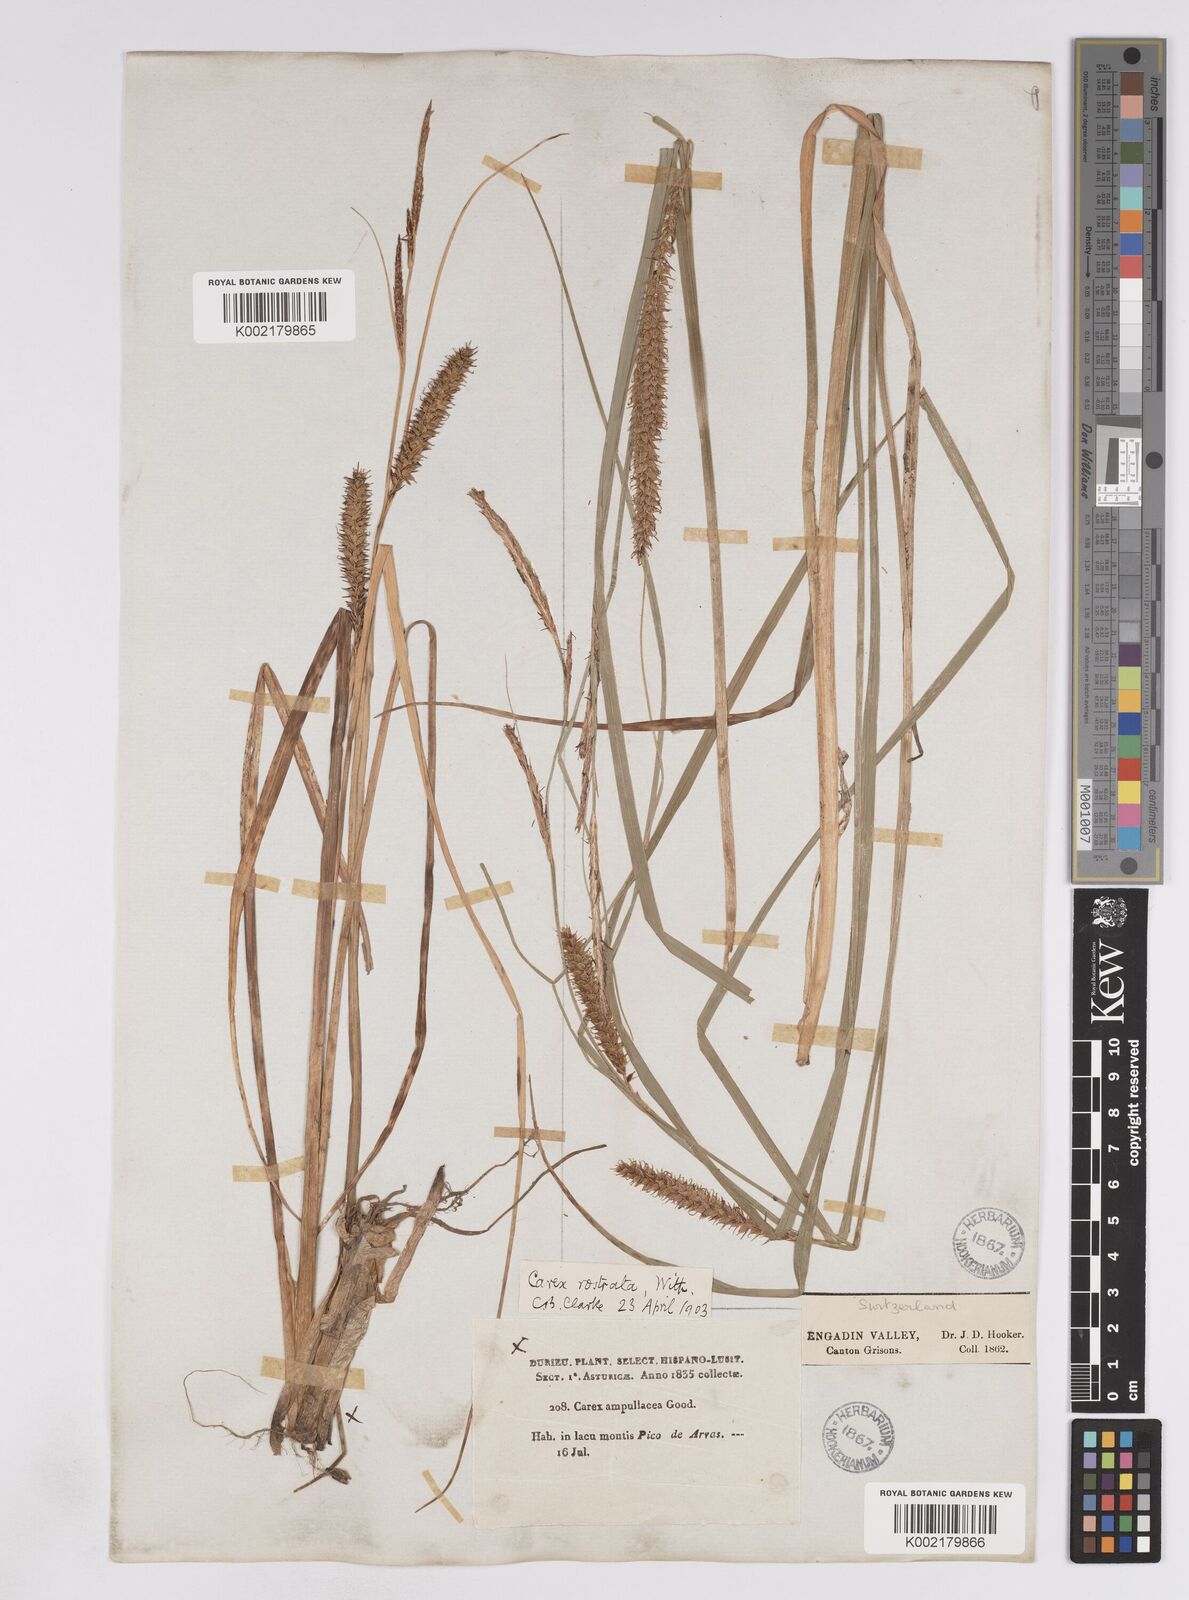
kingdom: Plantae
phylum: Tracheophyta
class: Liliopsida
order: Poales
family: Cyperaceae
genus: Carex
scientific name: Carex rostrata
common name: Bottle sedge
